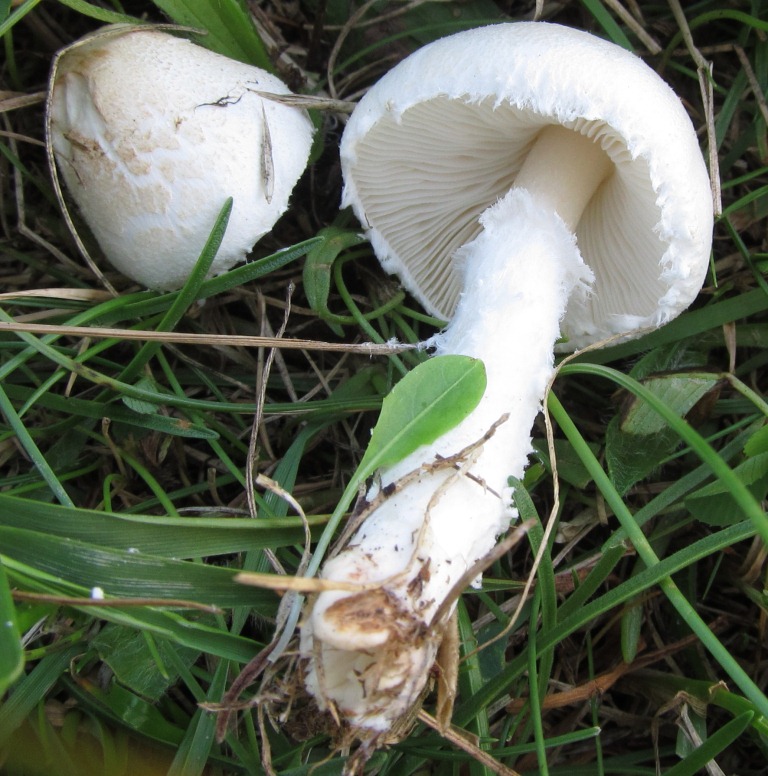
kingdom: Fungi
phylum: Basidiomycota
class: Agaricomycetes
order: Agaricales
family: Agaricaceae
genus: Lepiota
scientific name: Lepiota erminea
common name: hvid parasolhat
